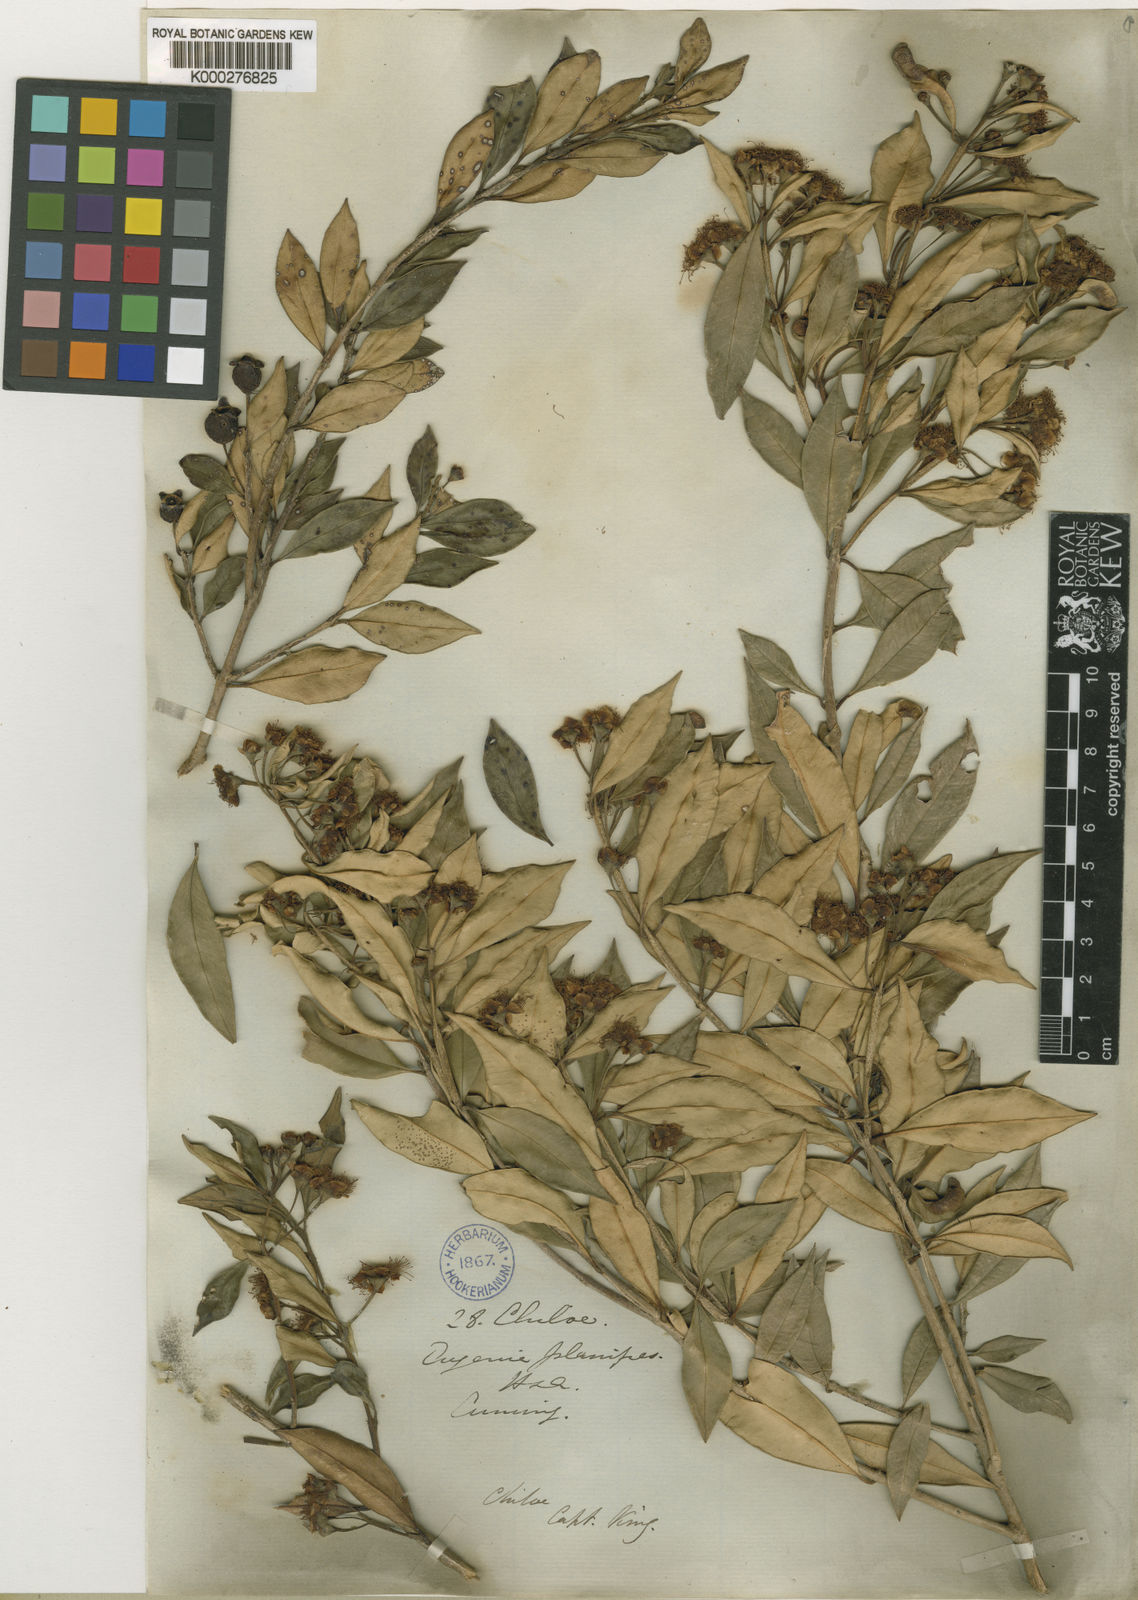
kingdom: Plantae
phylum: Tracheophyta
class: Magnoliopsida
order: Myrtales
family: Myrtaceae
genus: Myrceugenia
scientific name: Myrceugenia planipes
